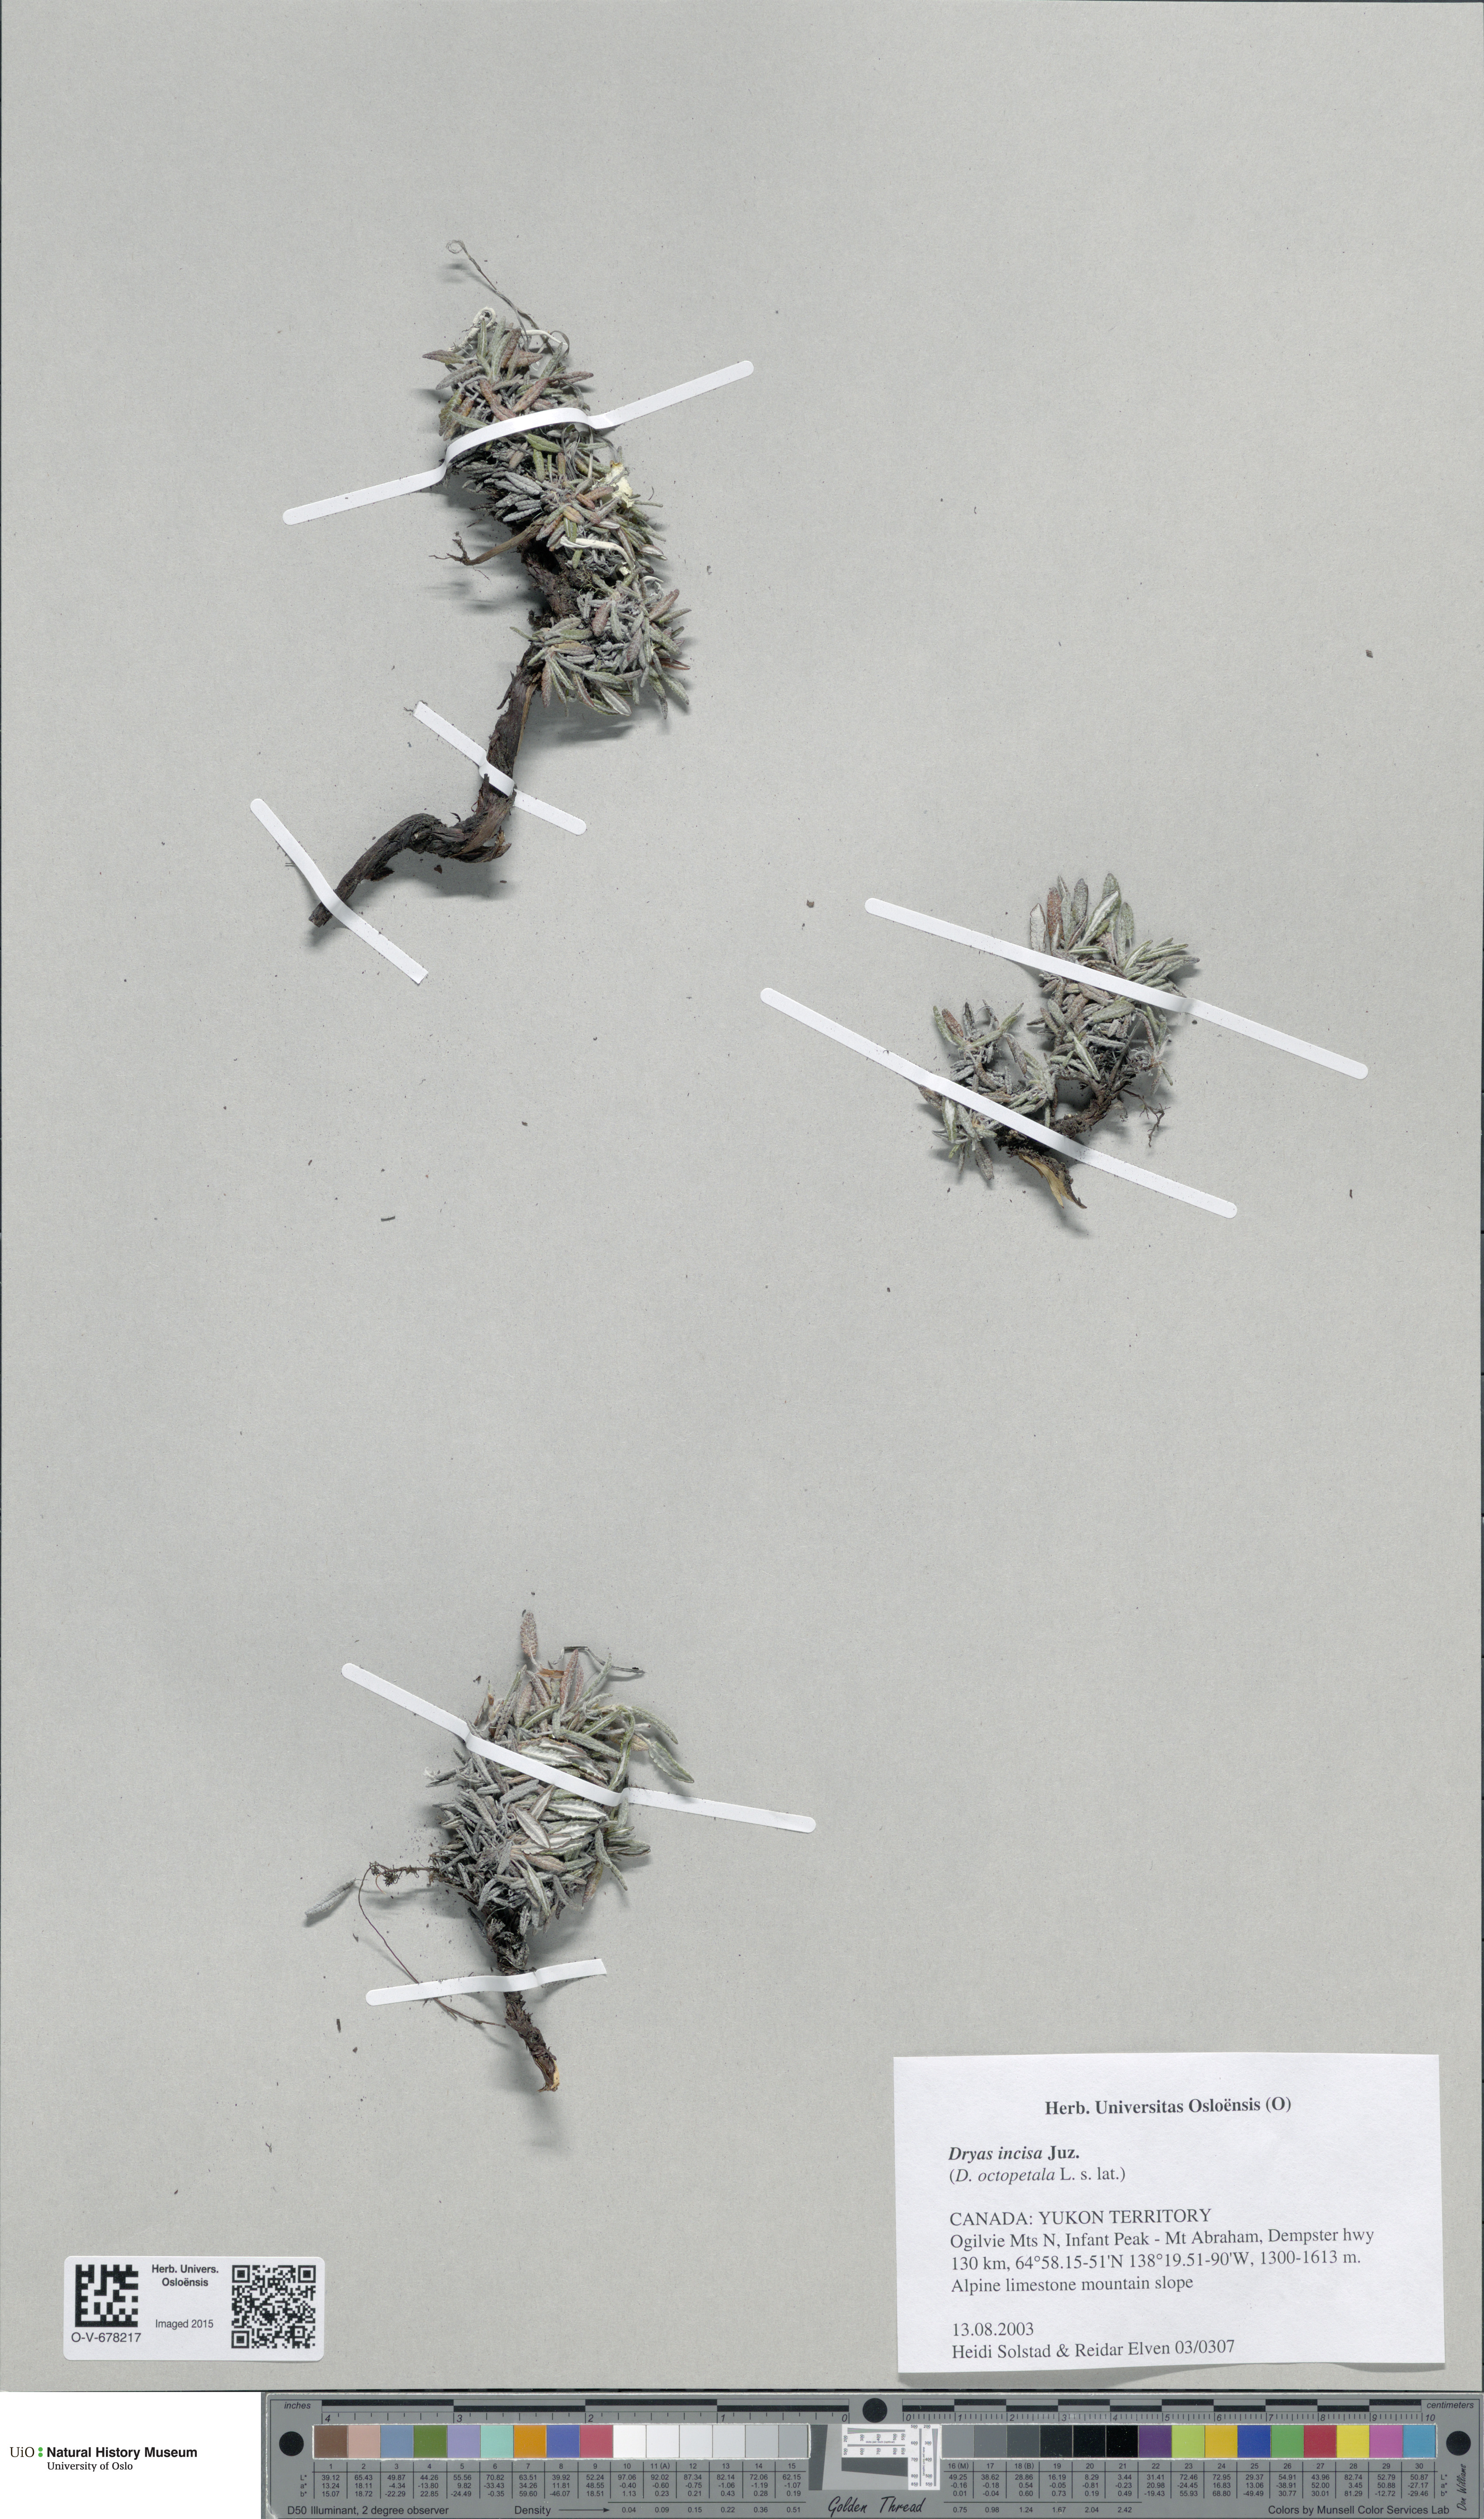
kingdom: Plantae
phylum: Tracheophyta
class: Magnoliopsida
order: Rosales
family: Rosaceae
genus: Dryas
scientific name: Dryas octopetala
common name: Eight-petal mountain-avens
